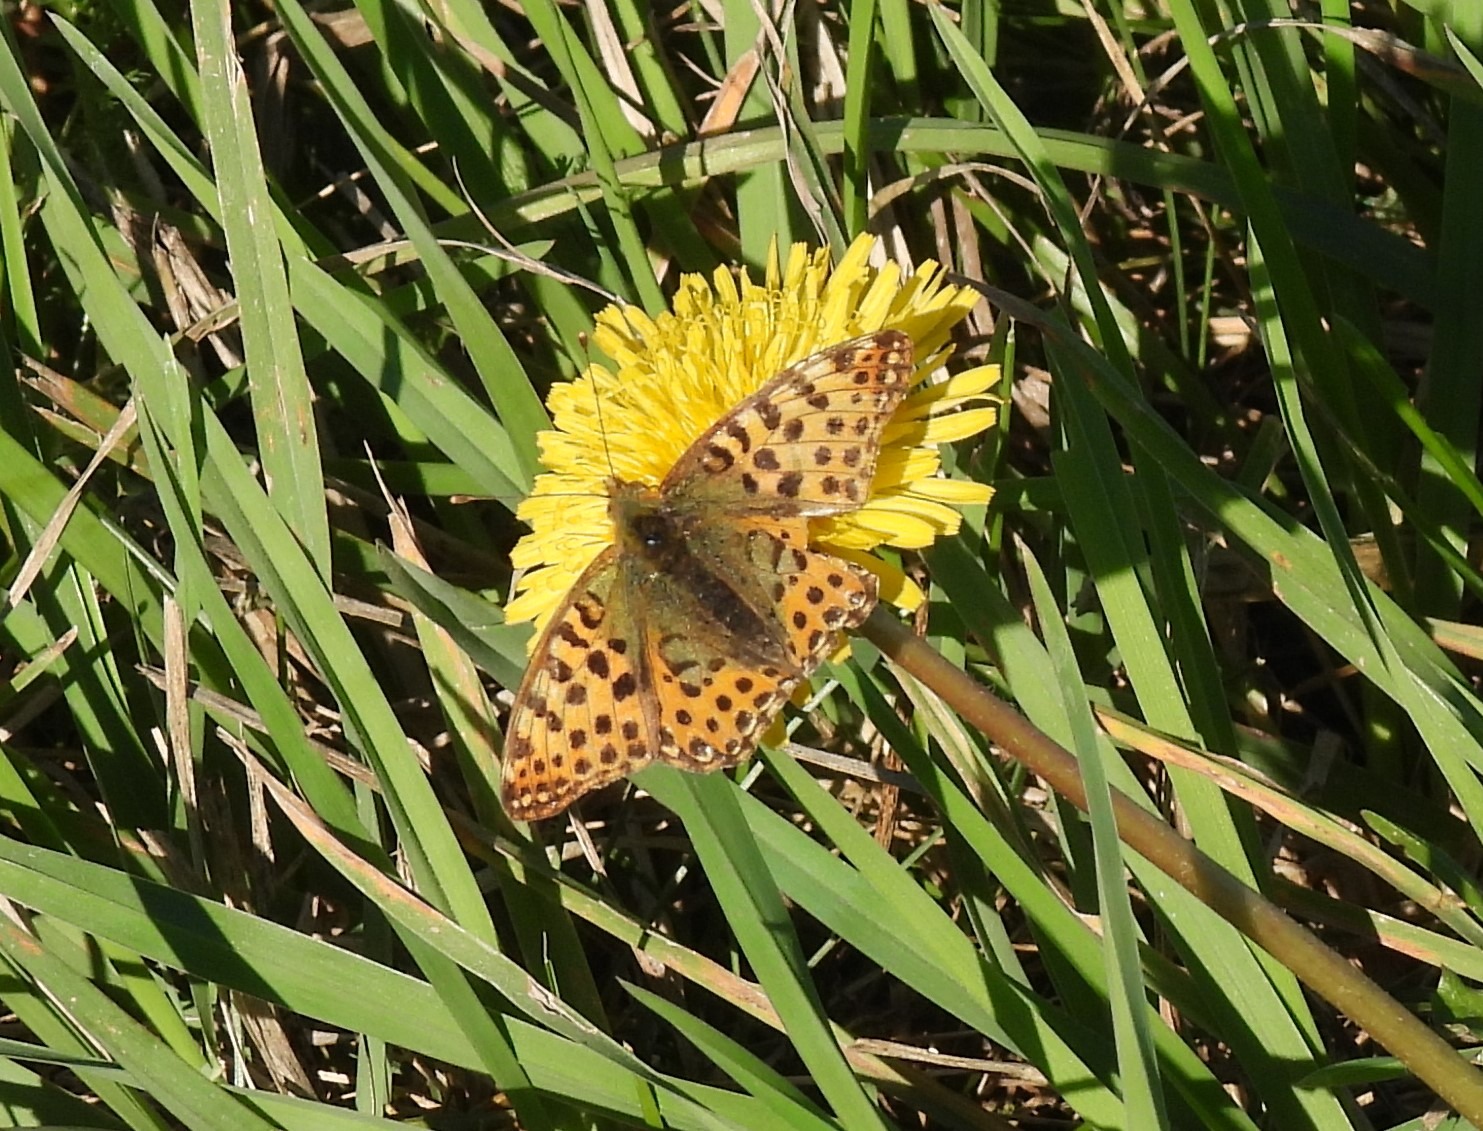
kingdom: Animalia
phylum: Arthropoda
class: Insecta
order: Lepidoptera
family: Nymphalidae
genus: Issoria
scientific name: Issoria lathonia
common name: Storplettet perlemorsommerfugl
